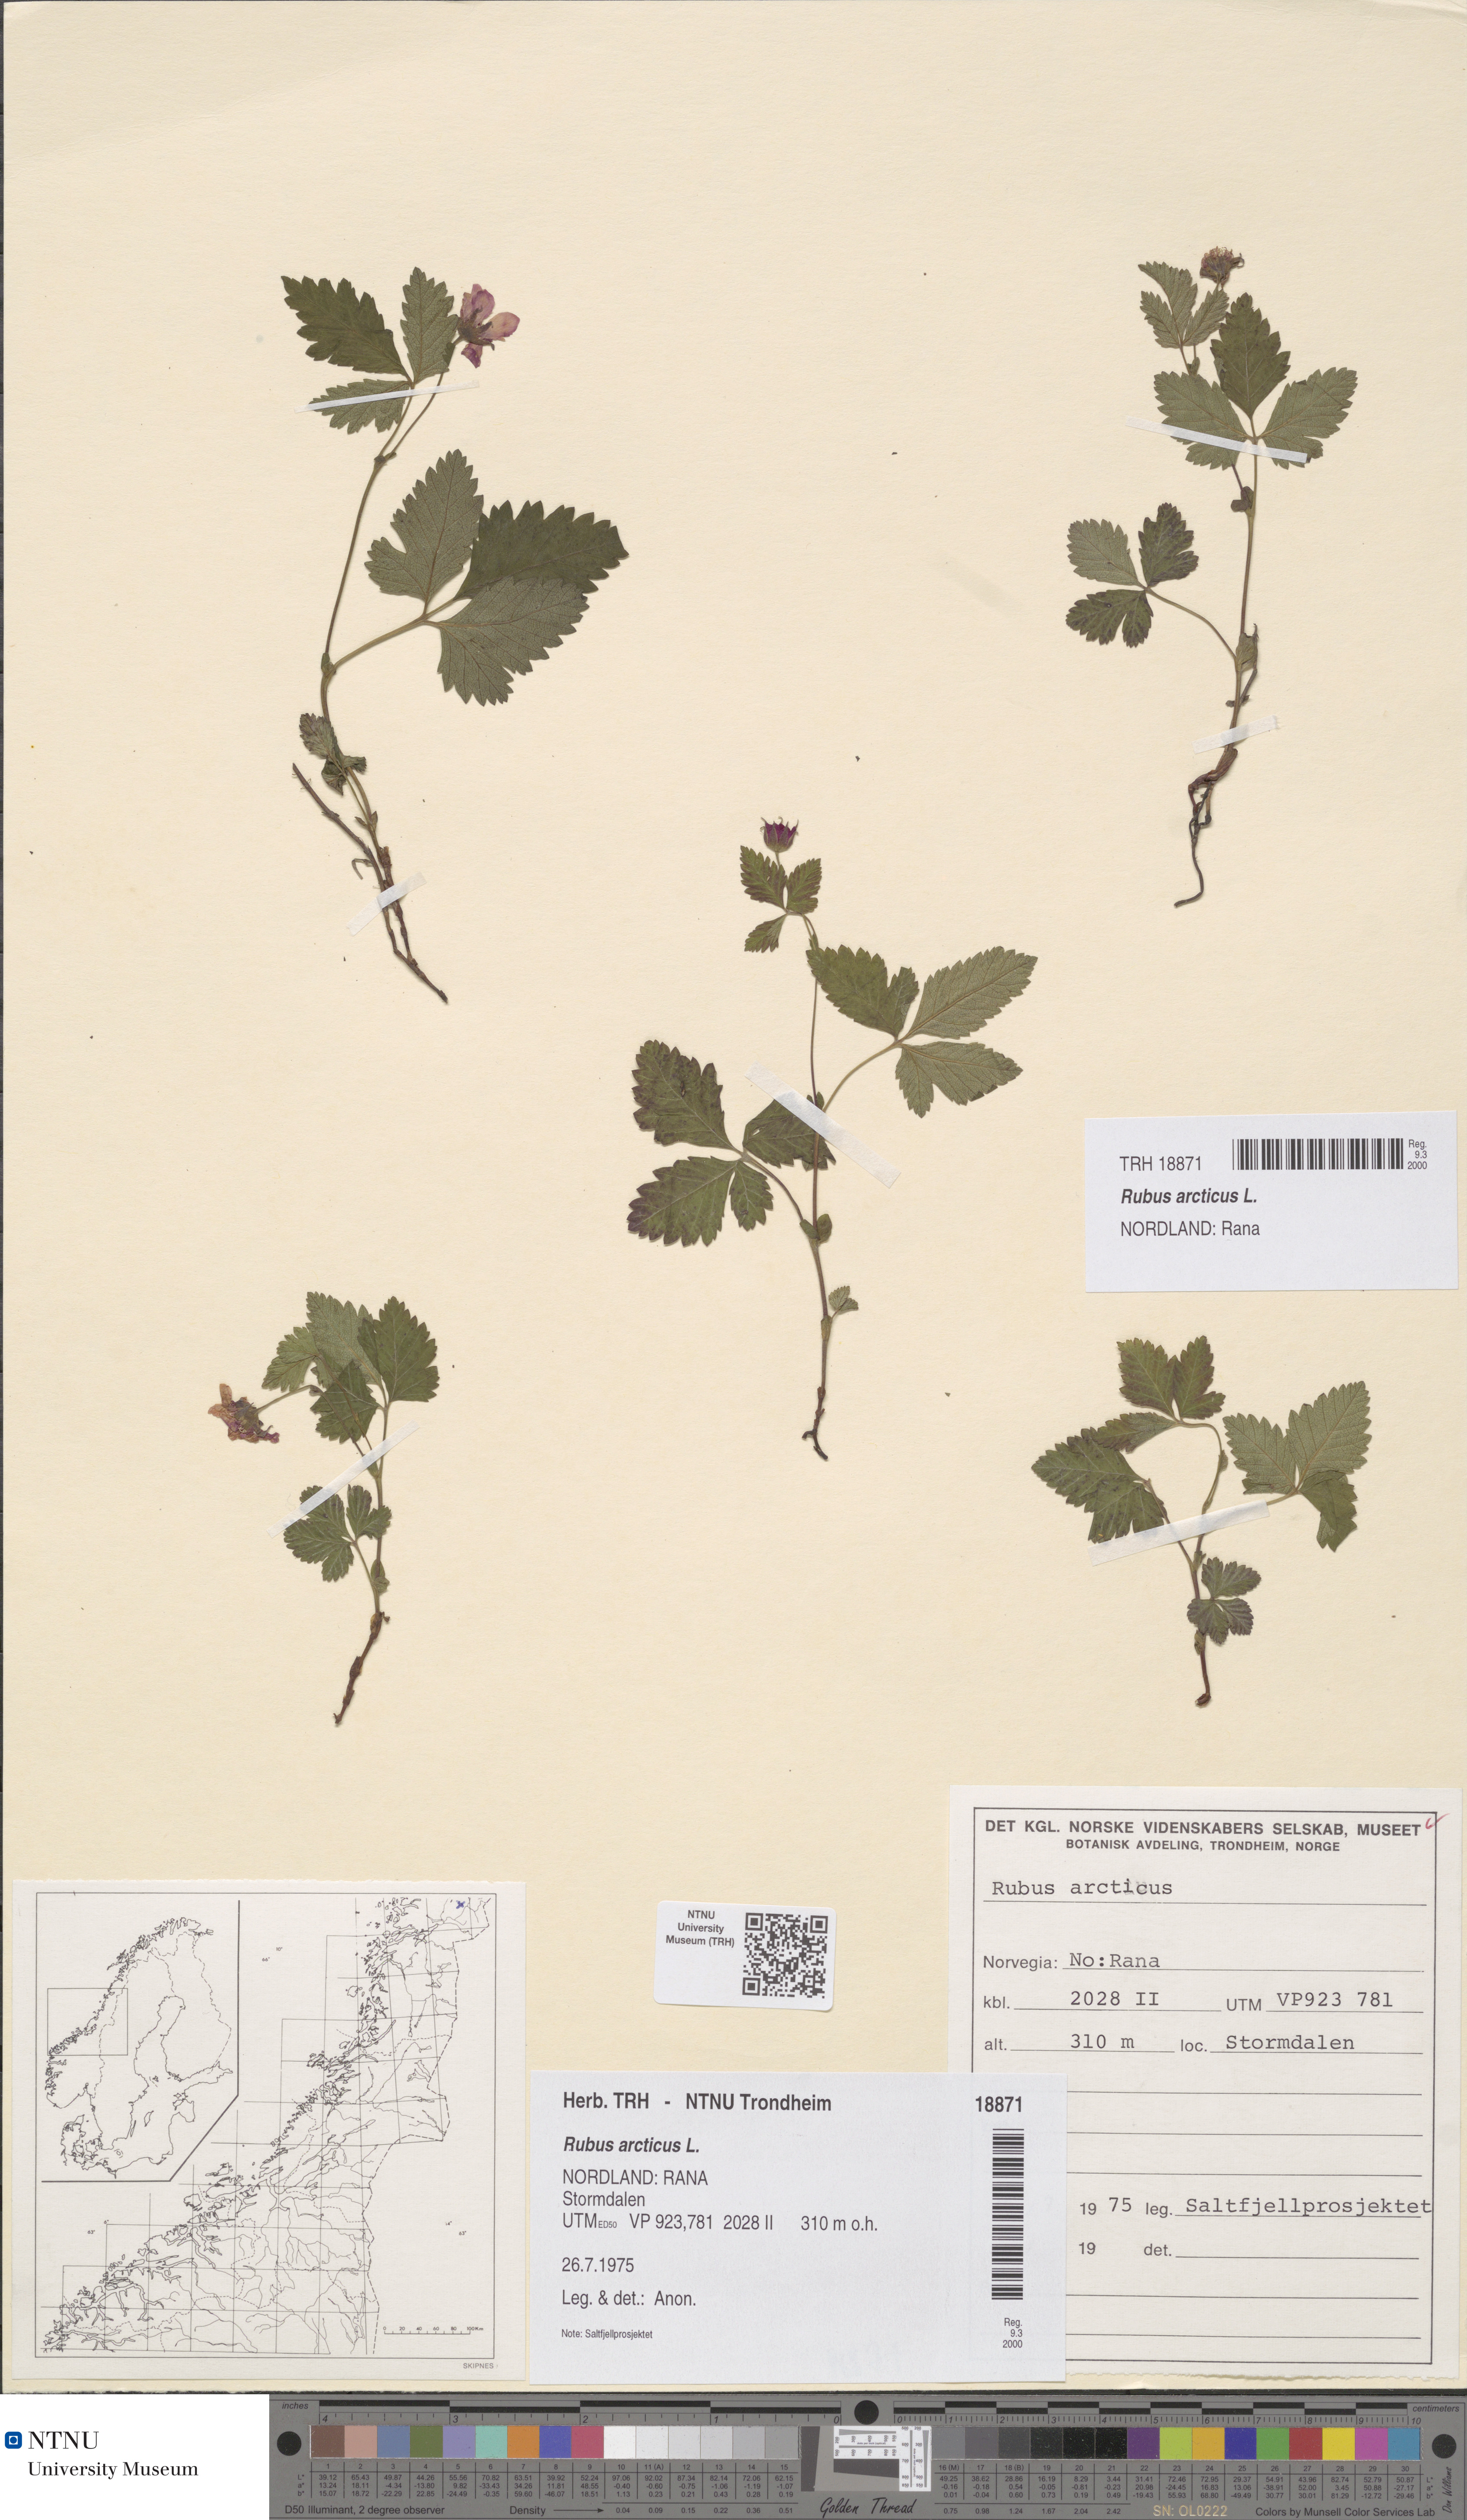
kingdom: Plantae
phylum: Tracheophyta
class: Magnoliopsida
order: Rosales
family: Rosaceae
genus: Rubus
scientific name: Rubus arcticus
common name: Arctic bramble
